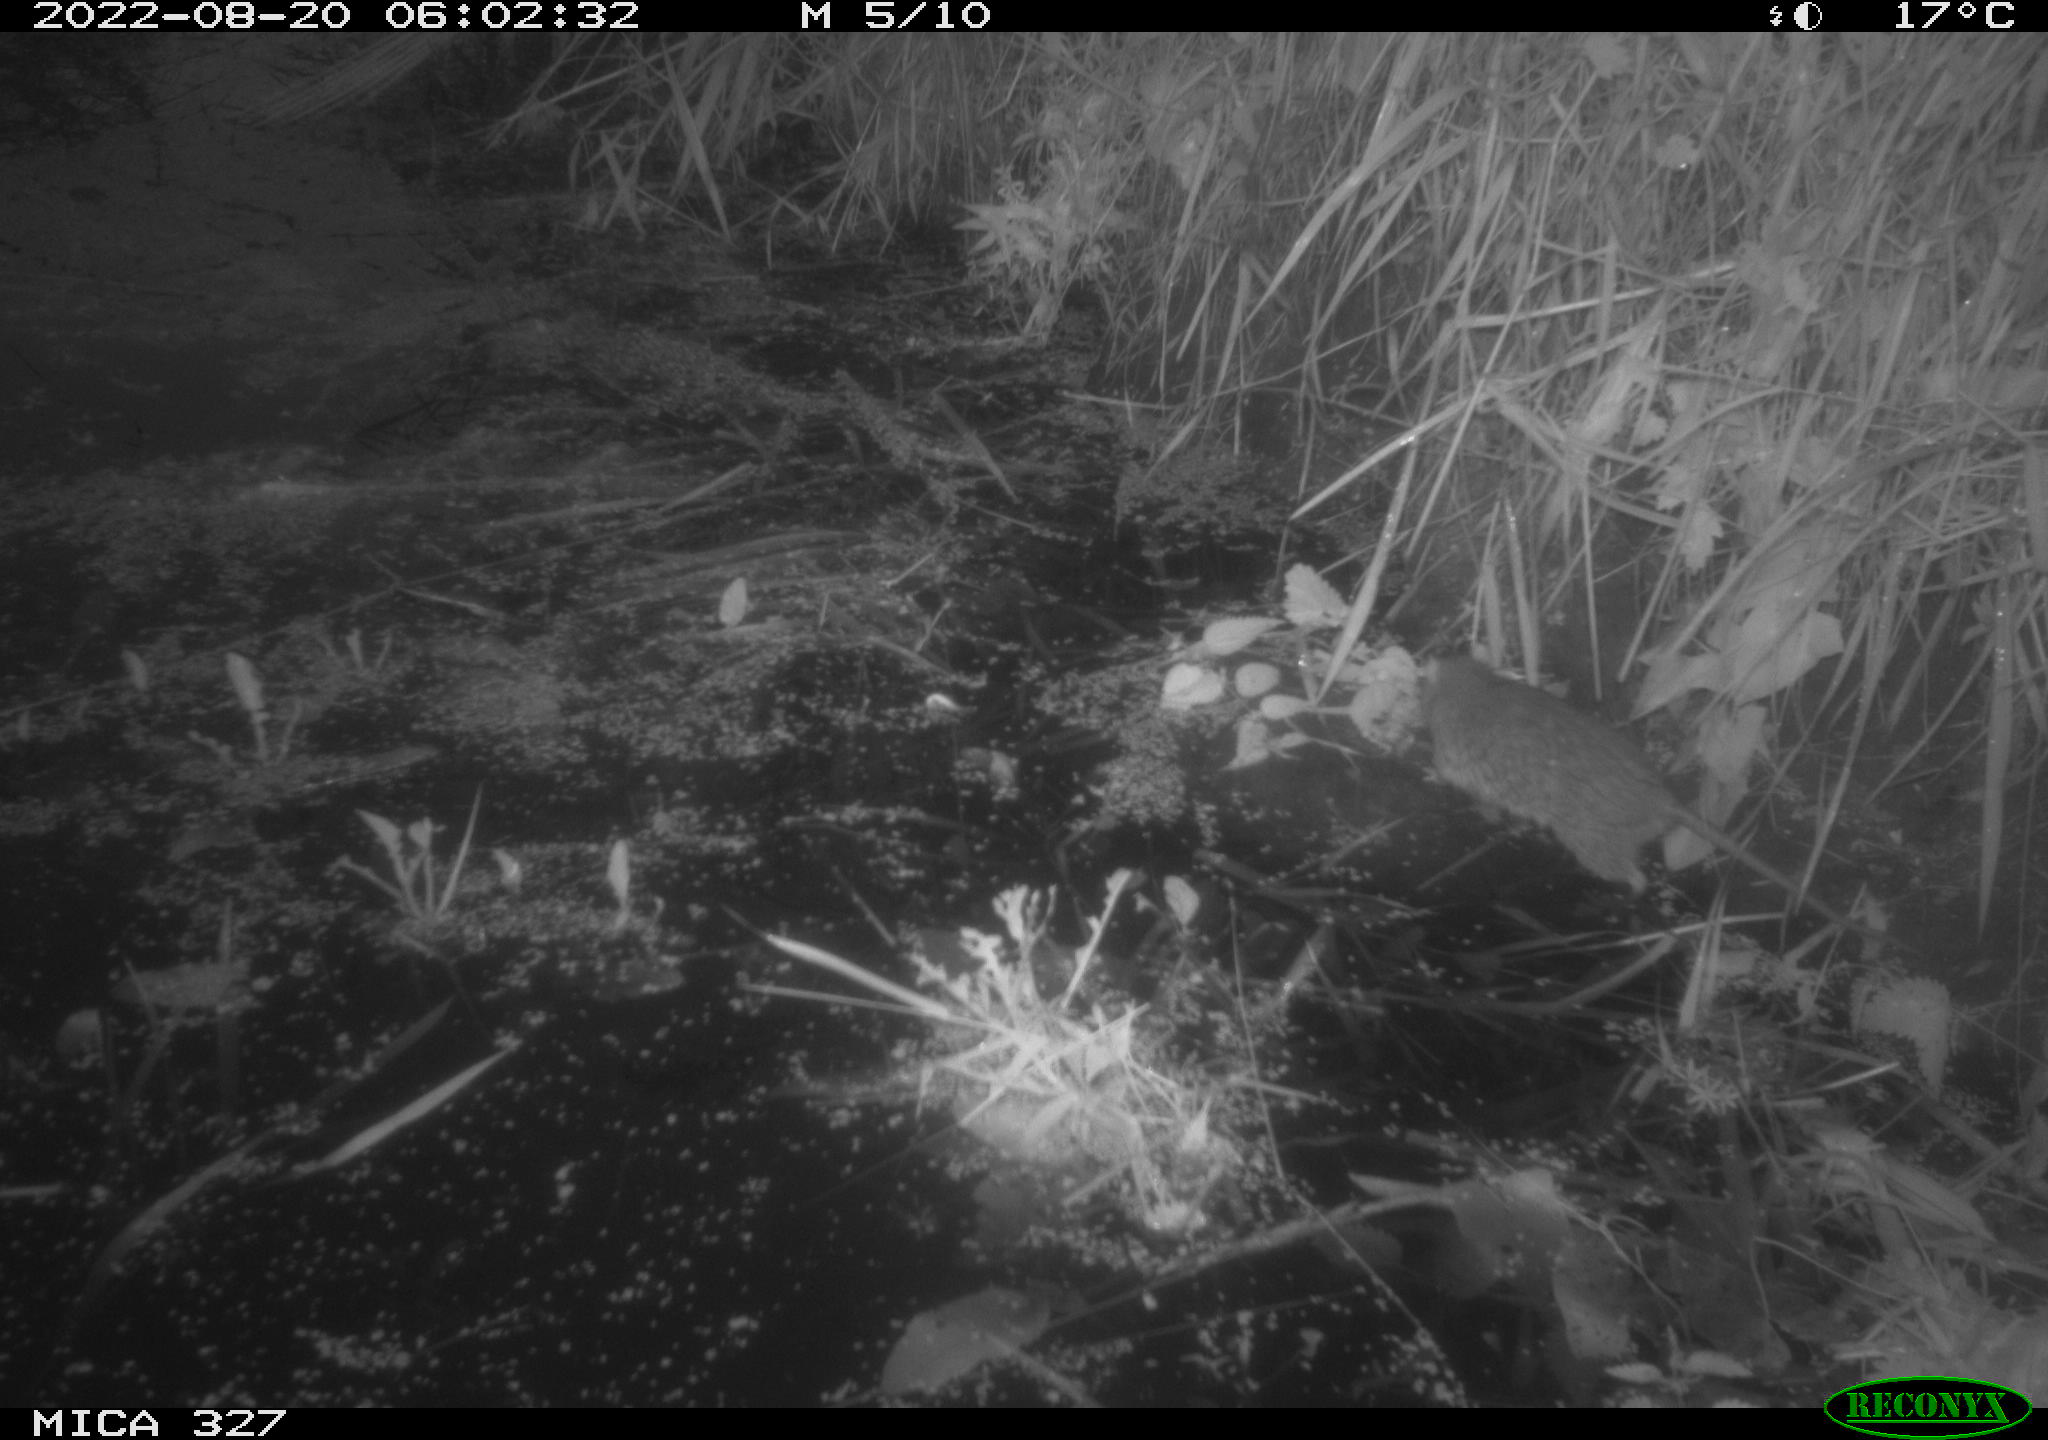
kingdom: Animalia
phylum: Chordata
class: Mammalia
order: Rodentia
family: Muridae
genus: Rattus
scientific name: Rattus norvegicus
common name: Brown rat
